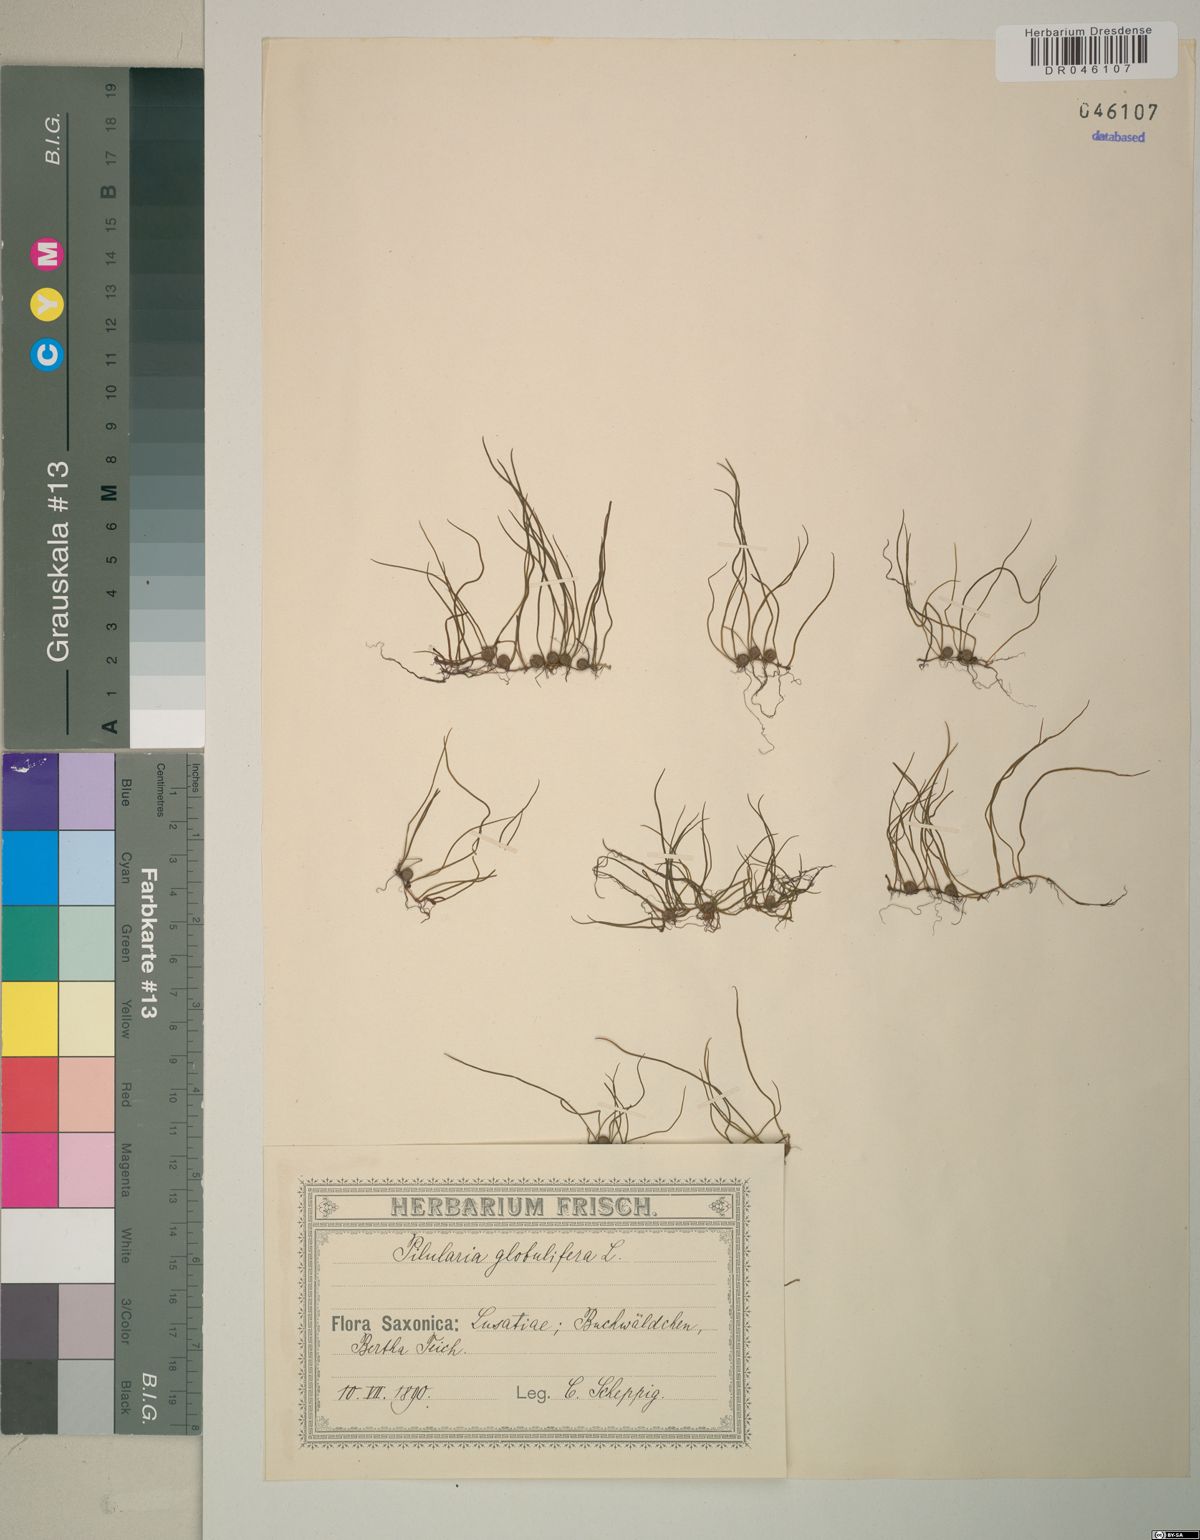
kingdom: Plantae
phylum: Tracheophyta
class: Polypodiopsida
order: Salviniales
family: Marsileaceae
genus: Pilularia
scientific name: Pilularia globulifera
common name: Pillwort
